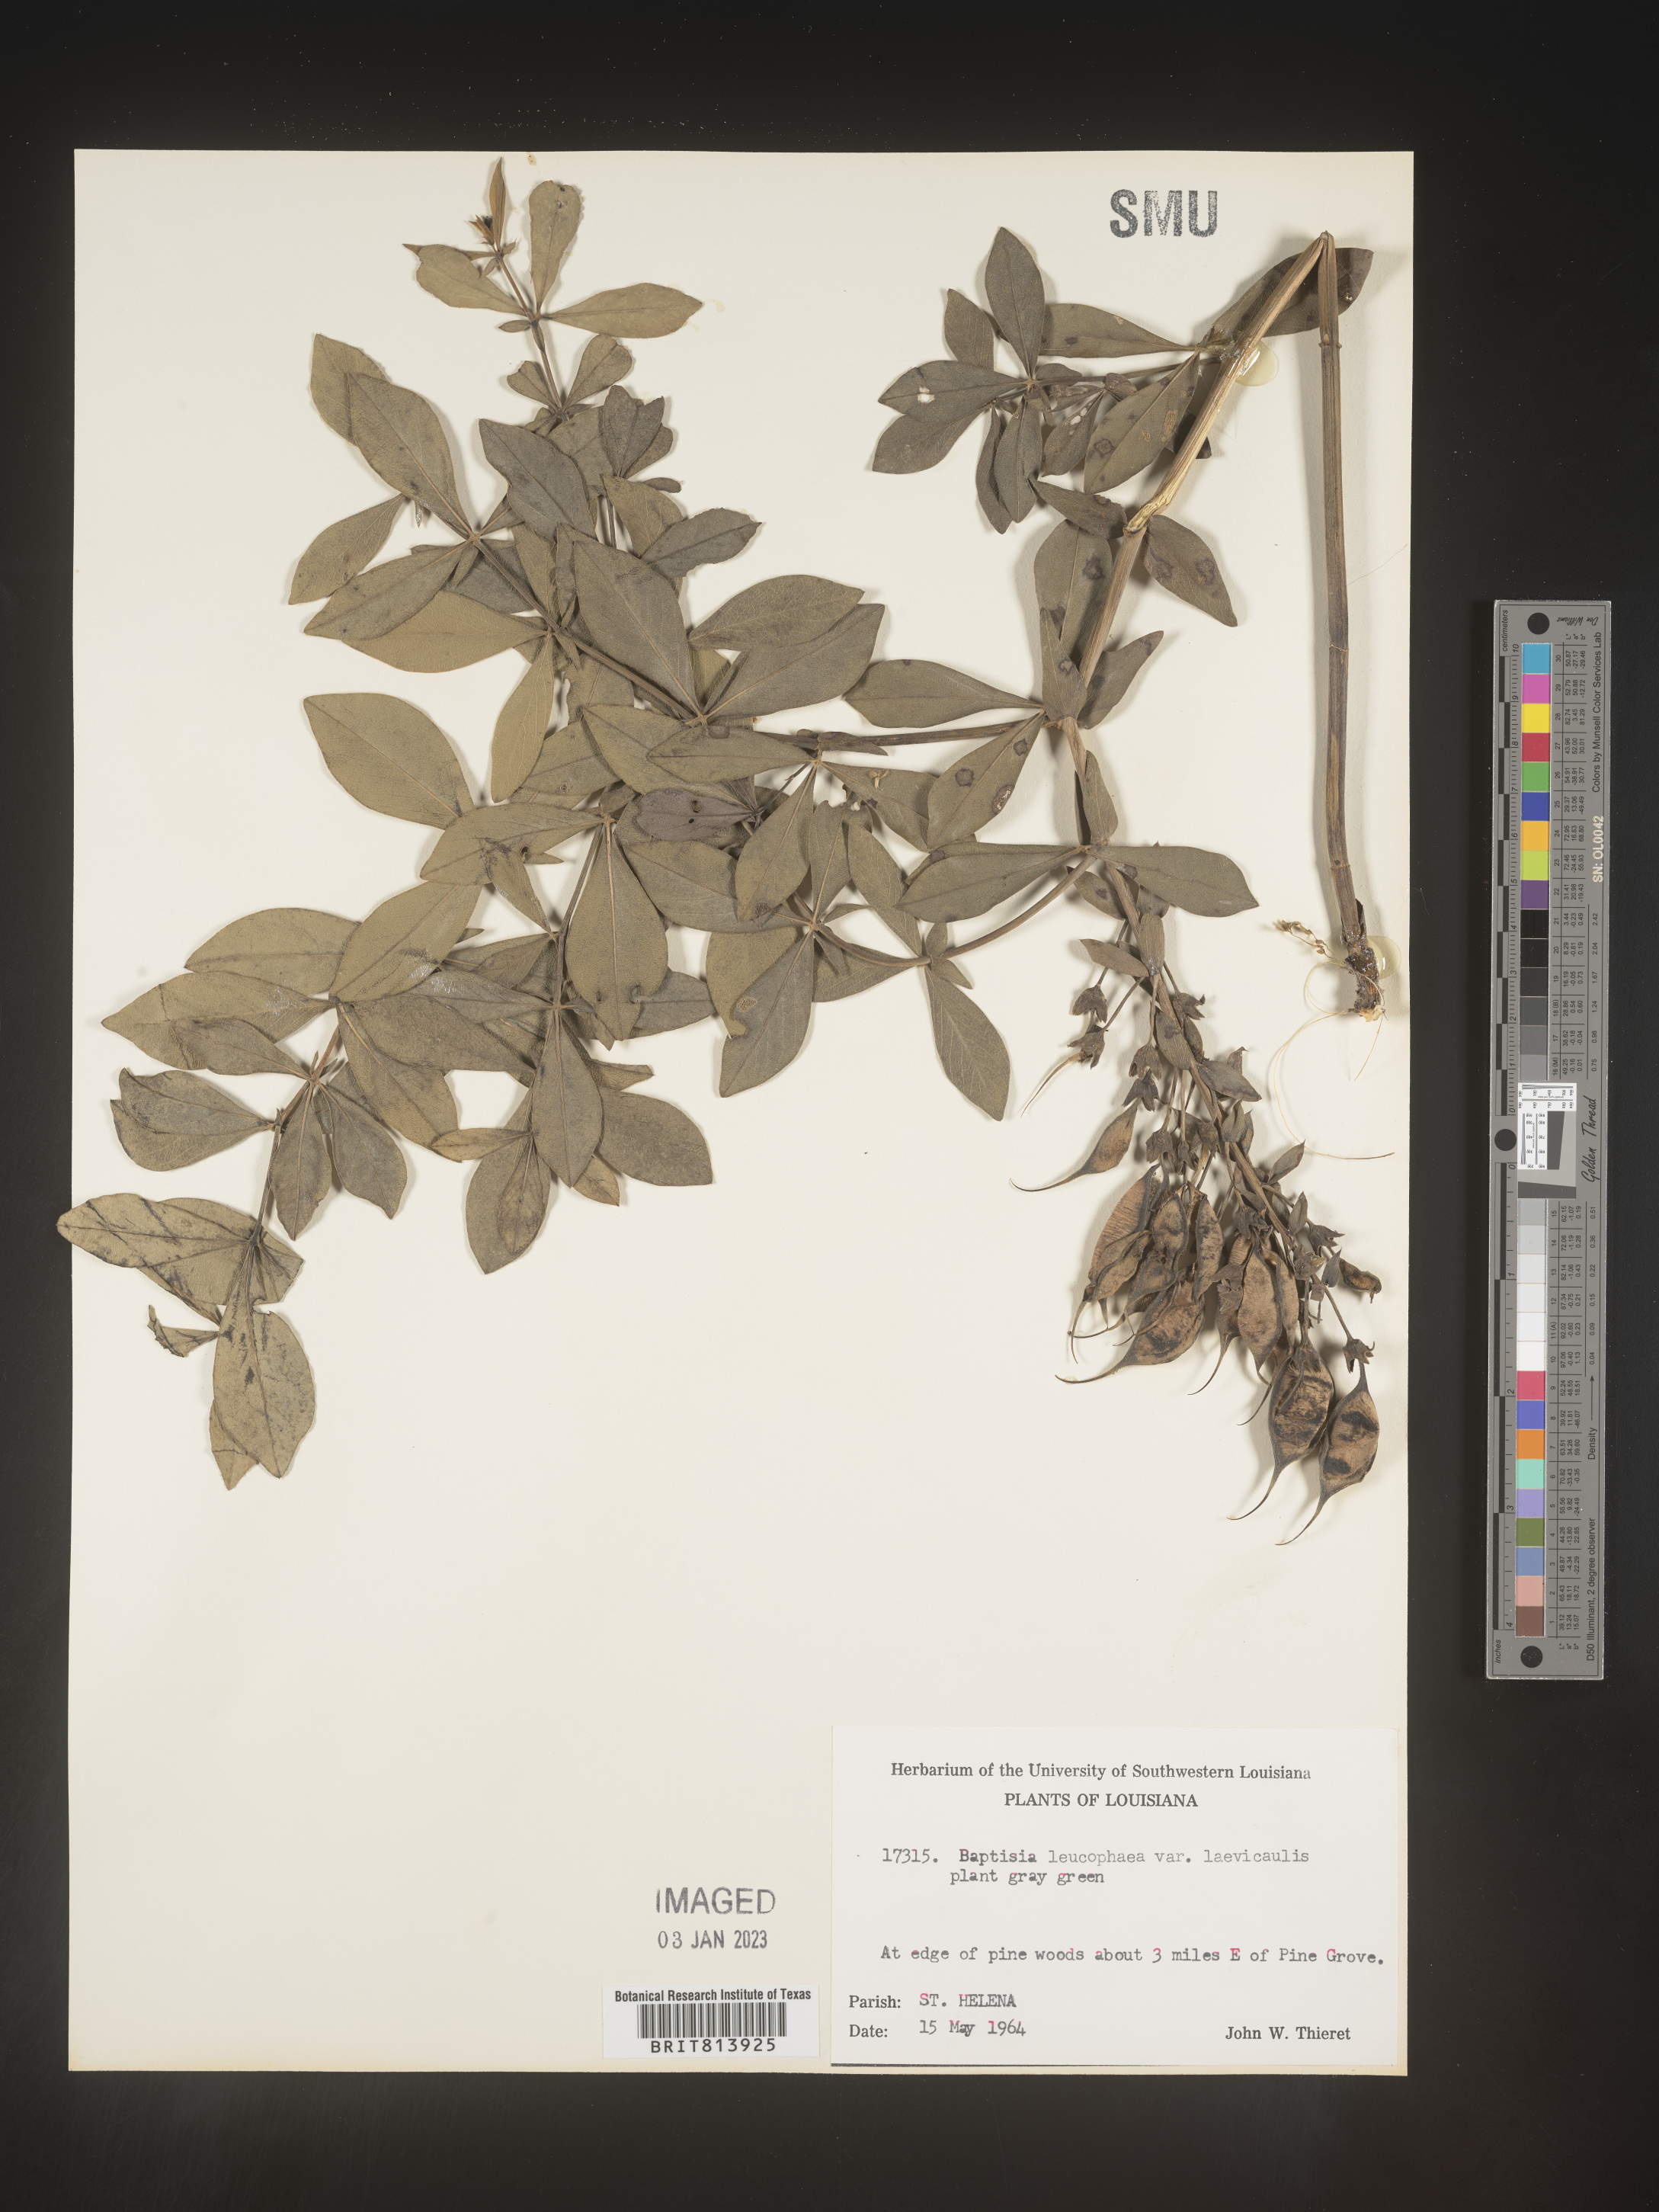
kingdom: Plantae
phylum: Tracheophyta
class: Magnoliopsida
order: Fabales
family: Fabaceae
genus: Baptisia
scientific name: Baptisia bracteata
